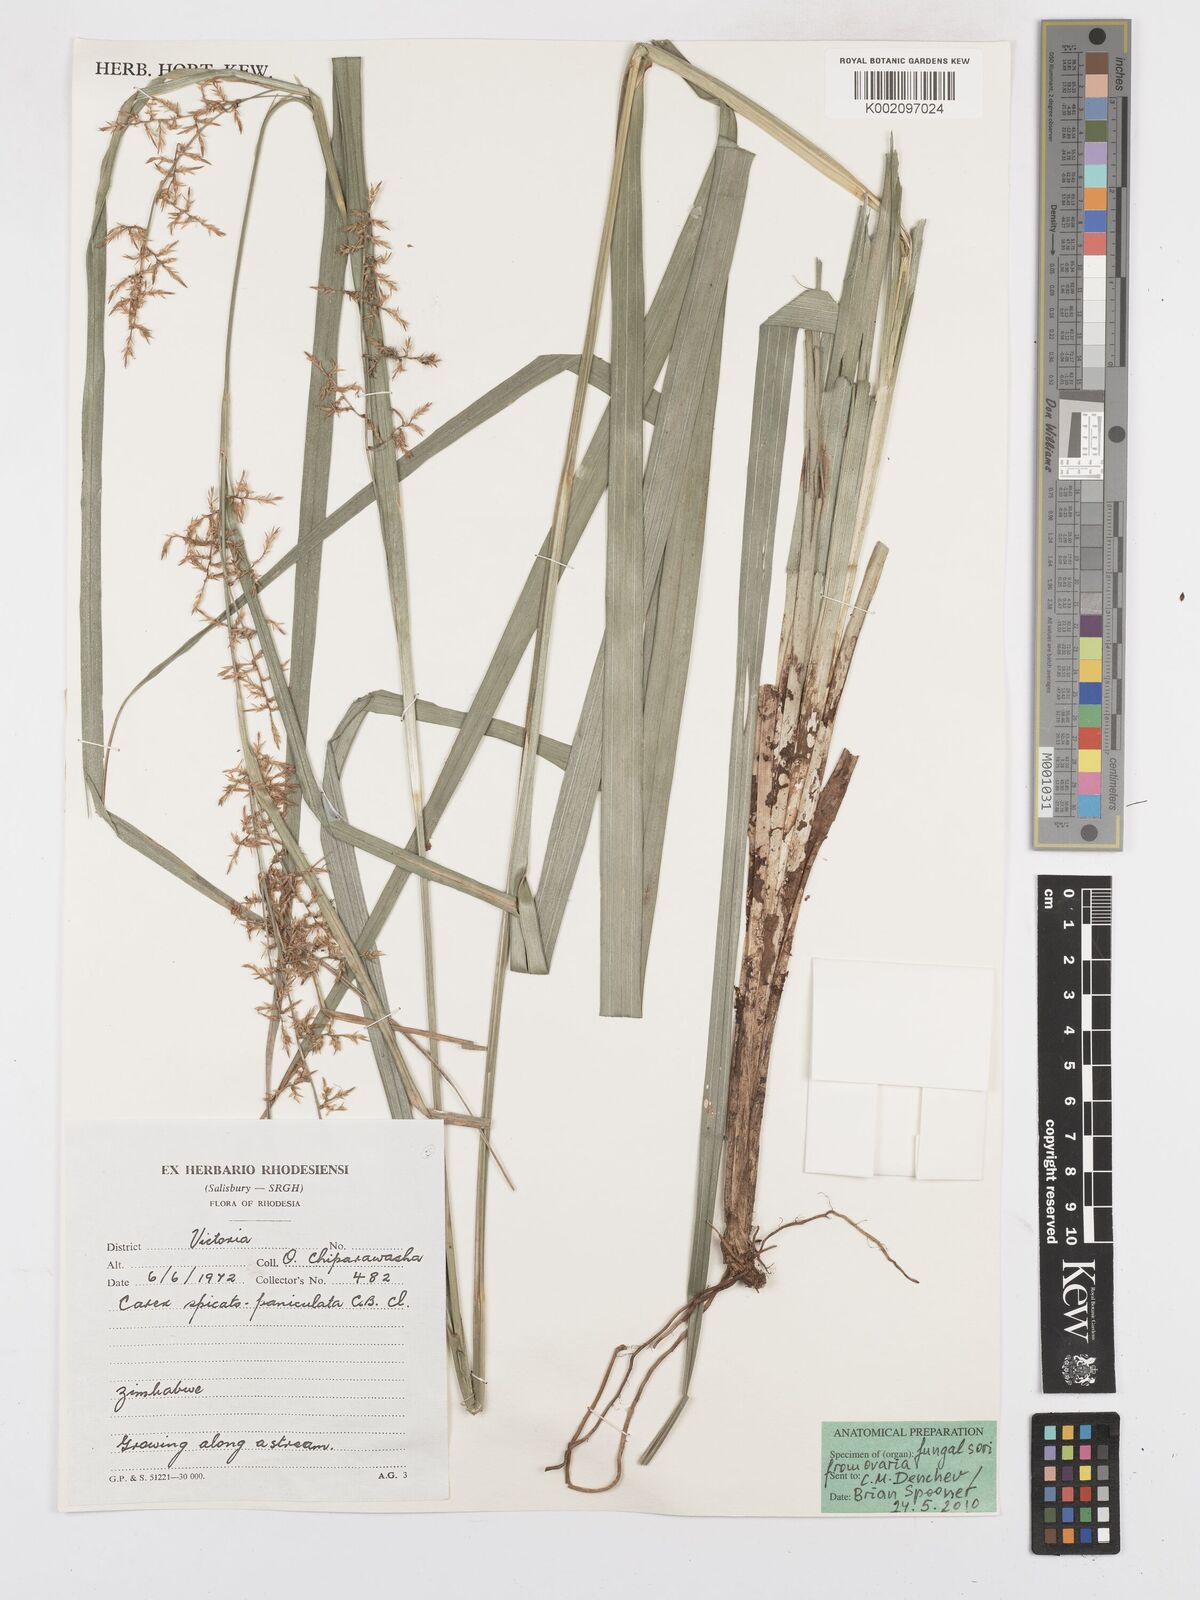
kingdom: Plantae
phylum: Tracheophyta
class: Liliopsida
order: Poales
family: Cyperaceae
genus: Carex
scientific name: Carex spicatopaniculata
